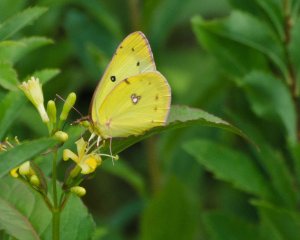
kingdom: Animalia
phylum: Arthropoda
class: Insecta
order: Lepidoptera
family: Pieridae
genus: Colias
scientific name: Colias philodice
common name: Clouded Sulphur
